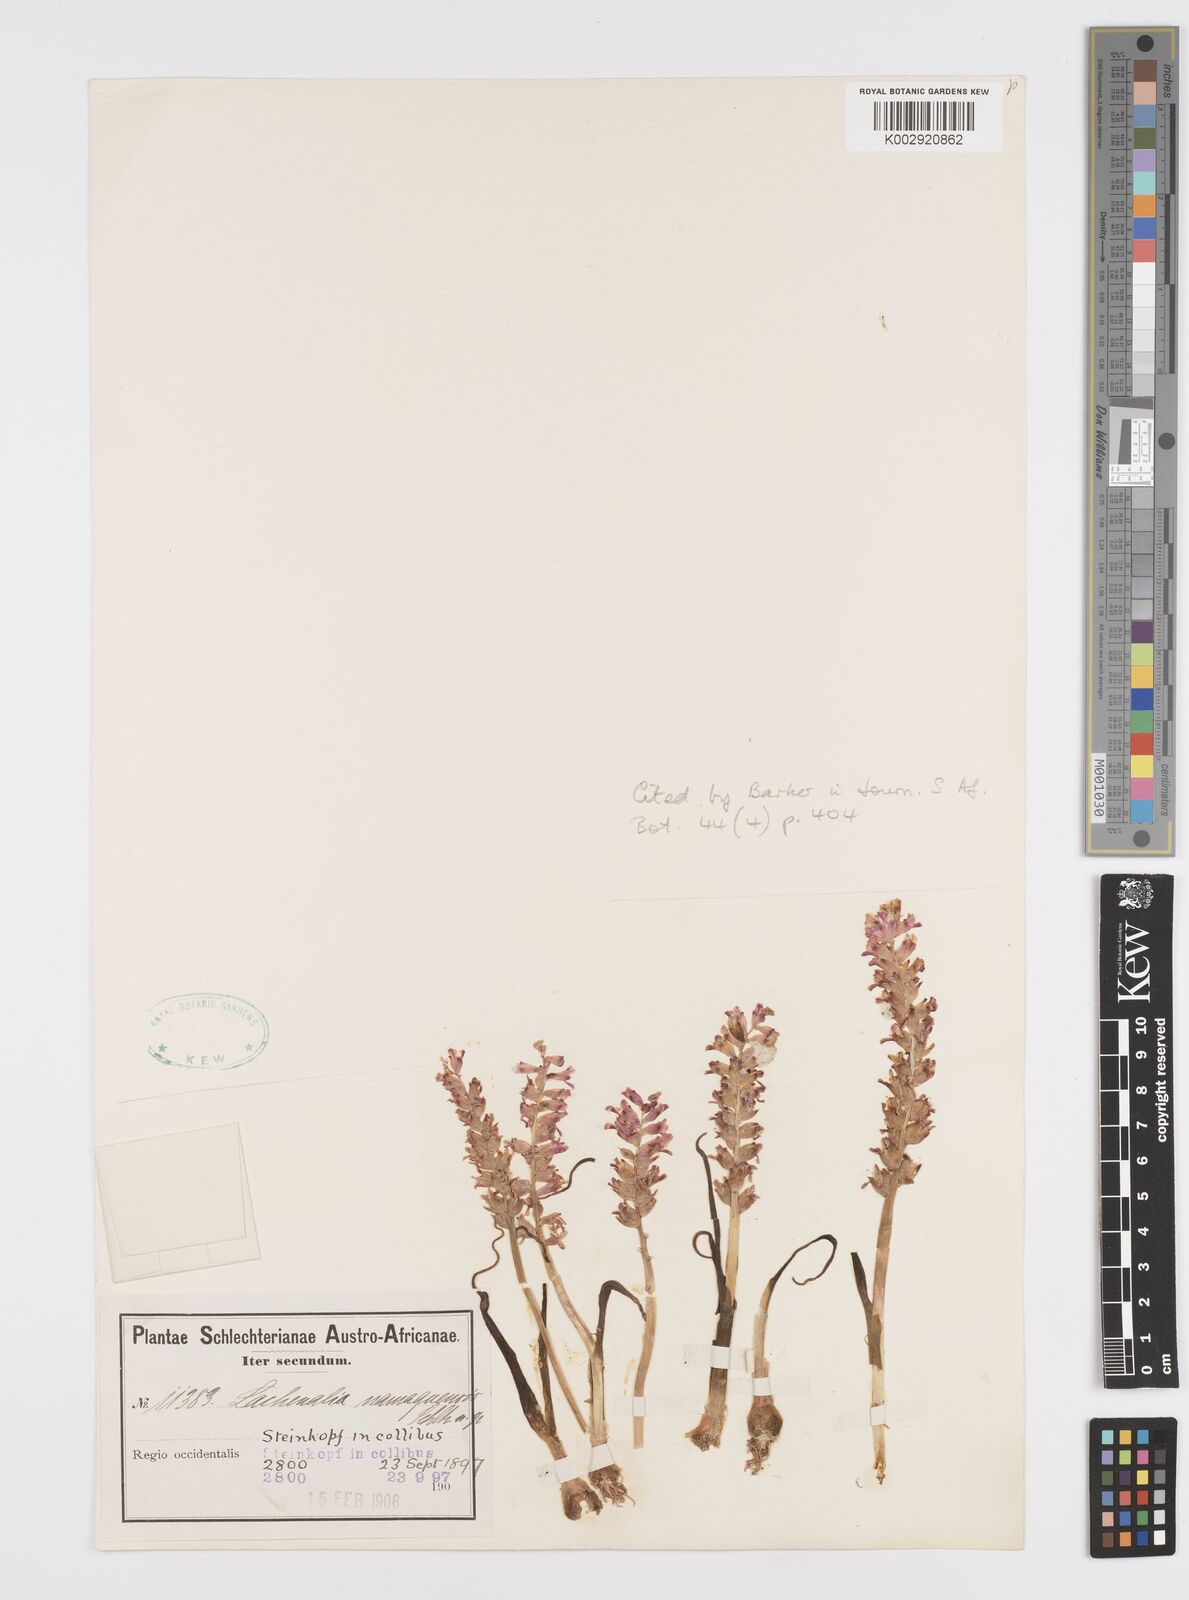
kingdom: Plantae
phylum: Tracheophyta
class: Liliopsida
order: Asparagales
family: Asparagaceae
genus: Lachenalia
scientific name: Lachenalia namaquensis
